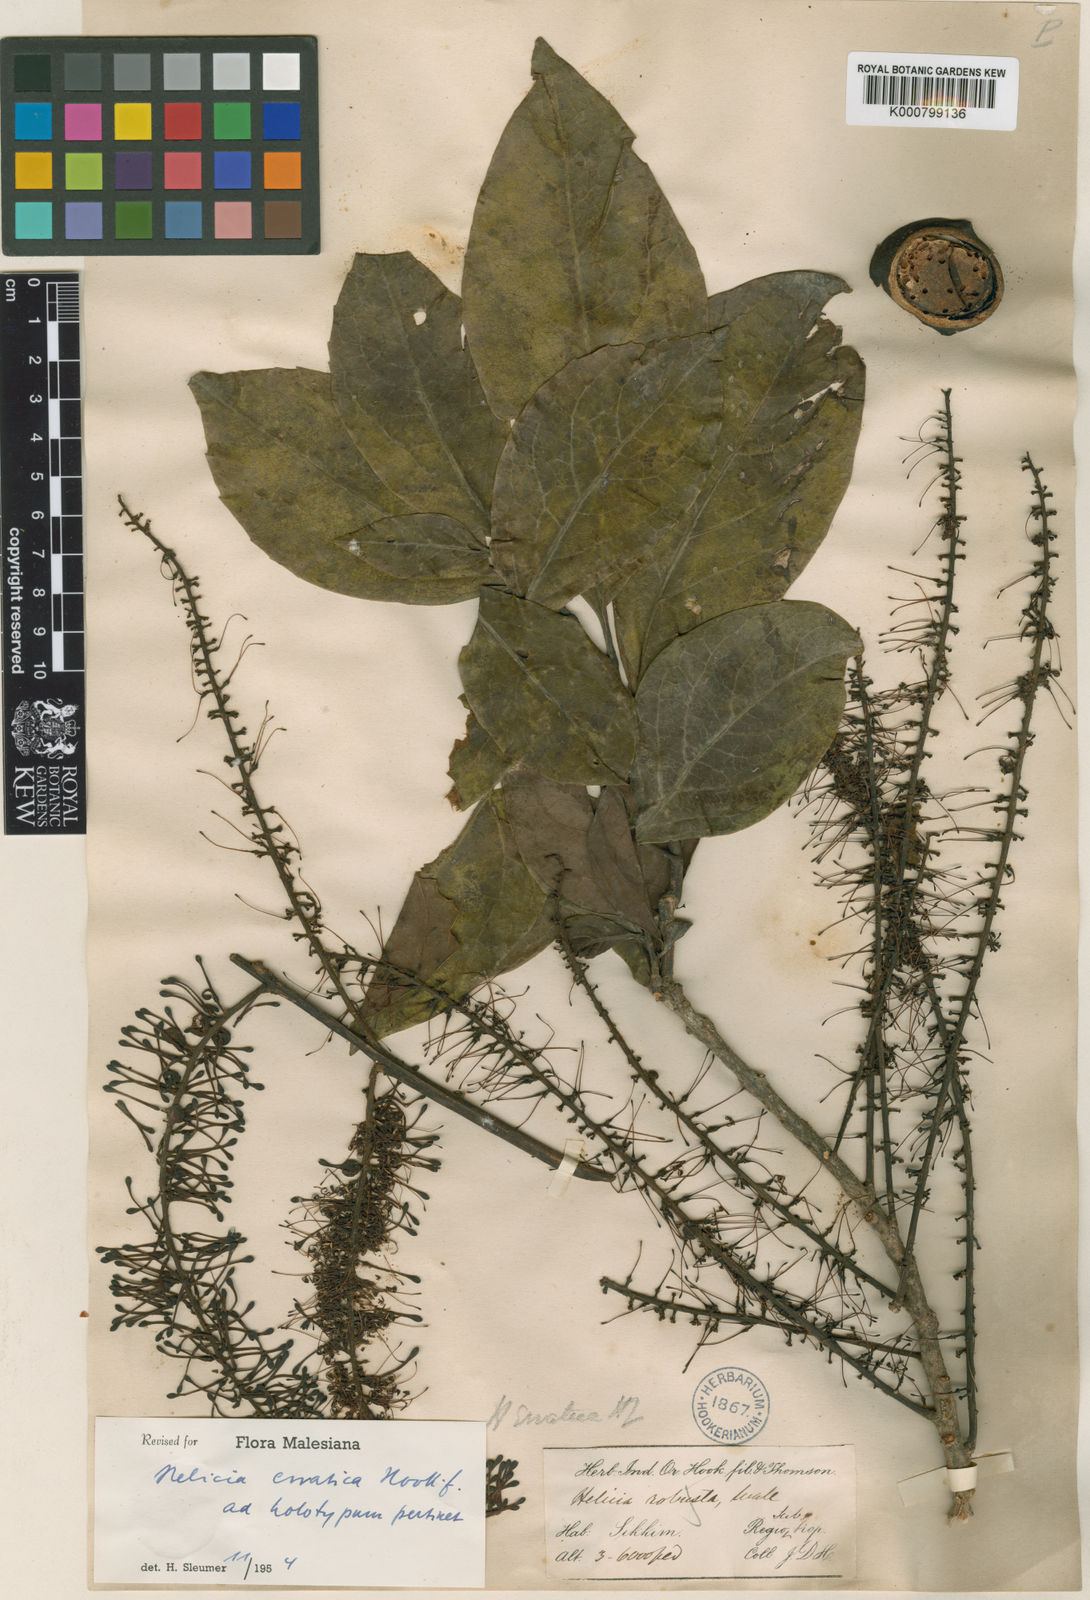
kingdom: Plantae
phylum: Tracheophyta
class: Magnoliopsida
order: Proteales
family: Proteaceae
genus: Helicia
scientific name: Helicia nilagirica
